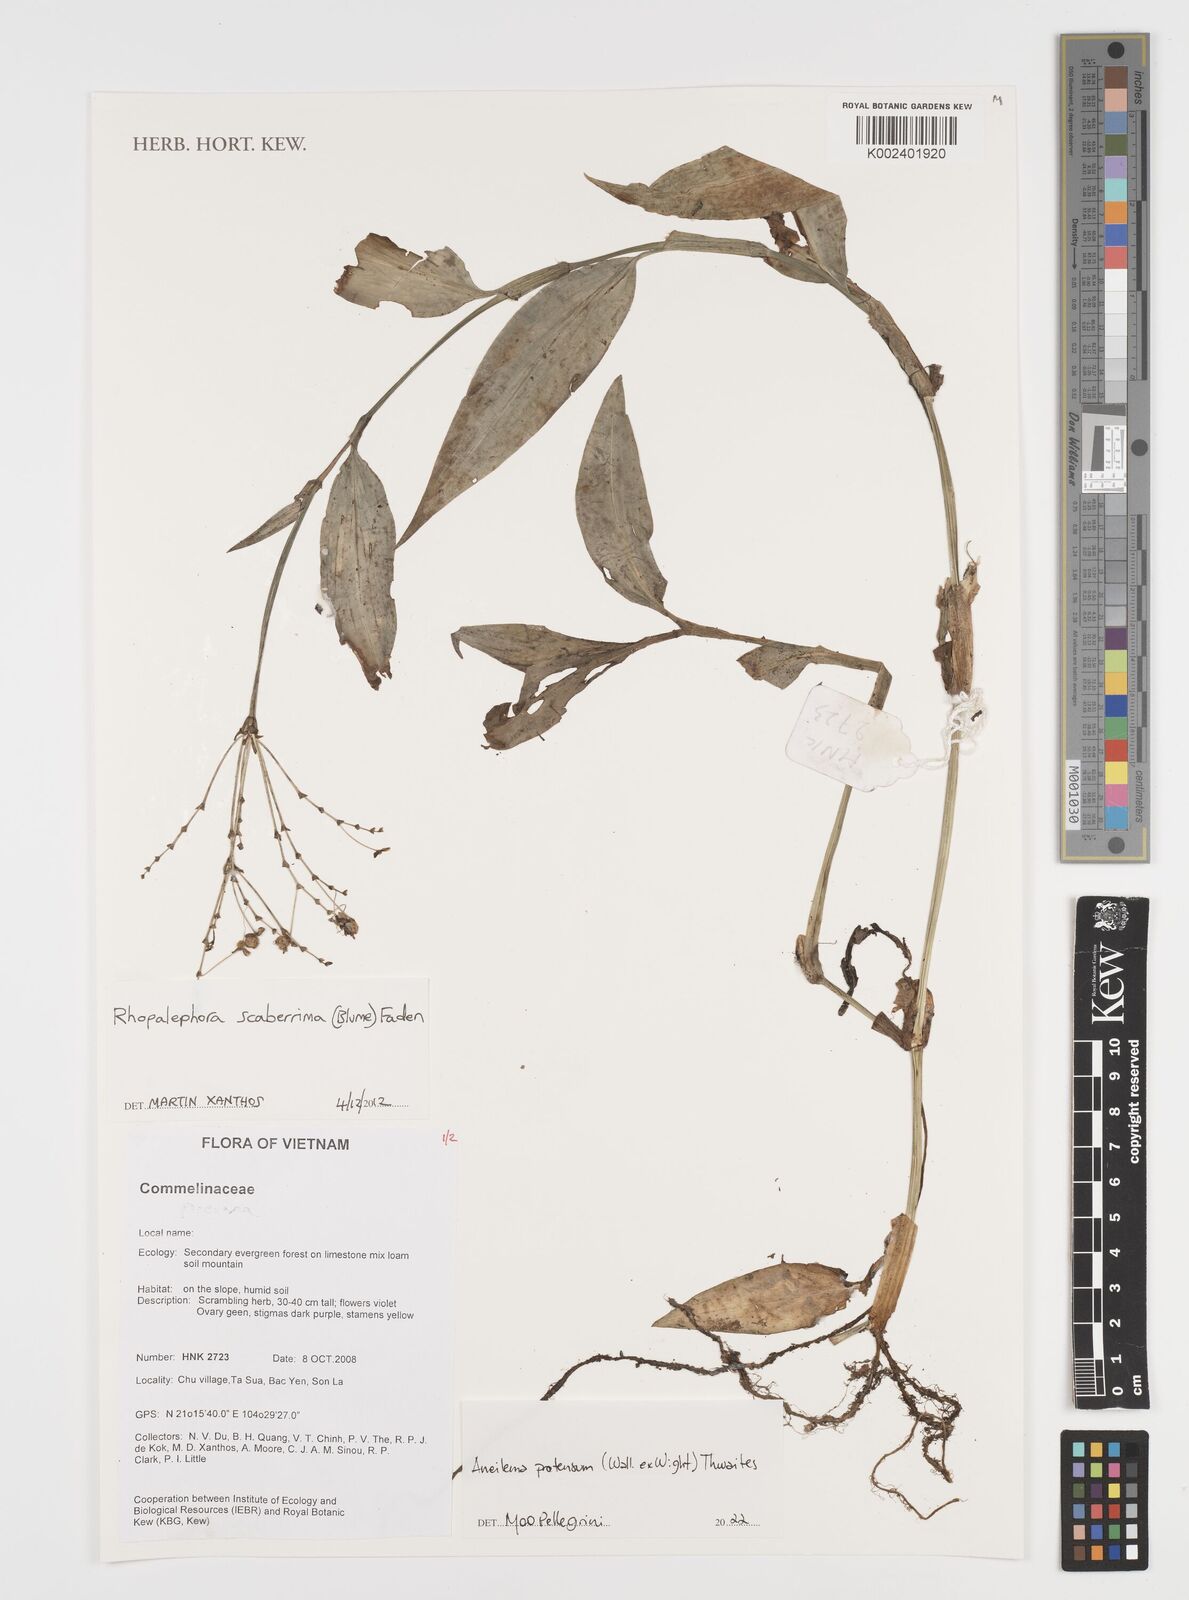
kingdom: Plantae
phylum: Tracheophyta
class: Liliopsida
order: Commelinales
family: Commelinaceae
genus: Rhopalephora
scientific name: Rhopalephora
